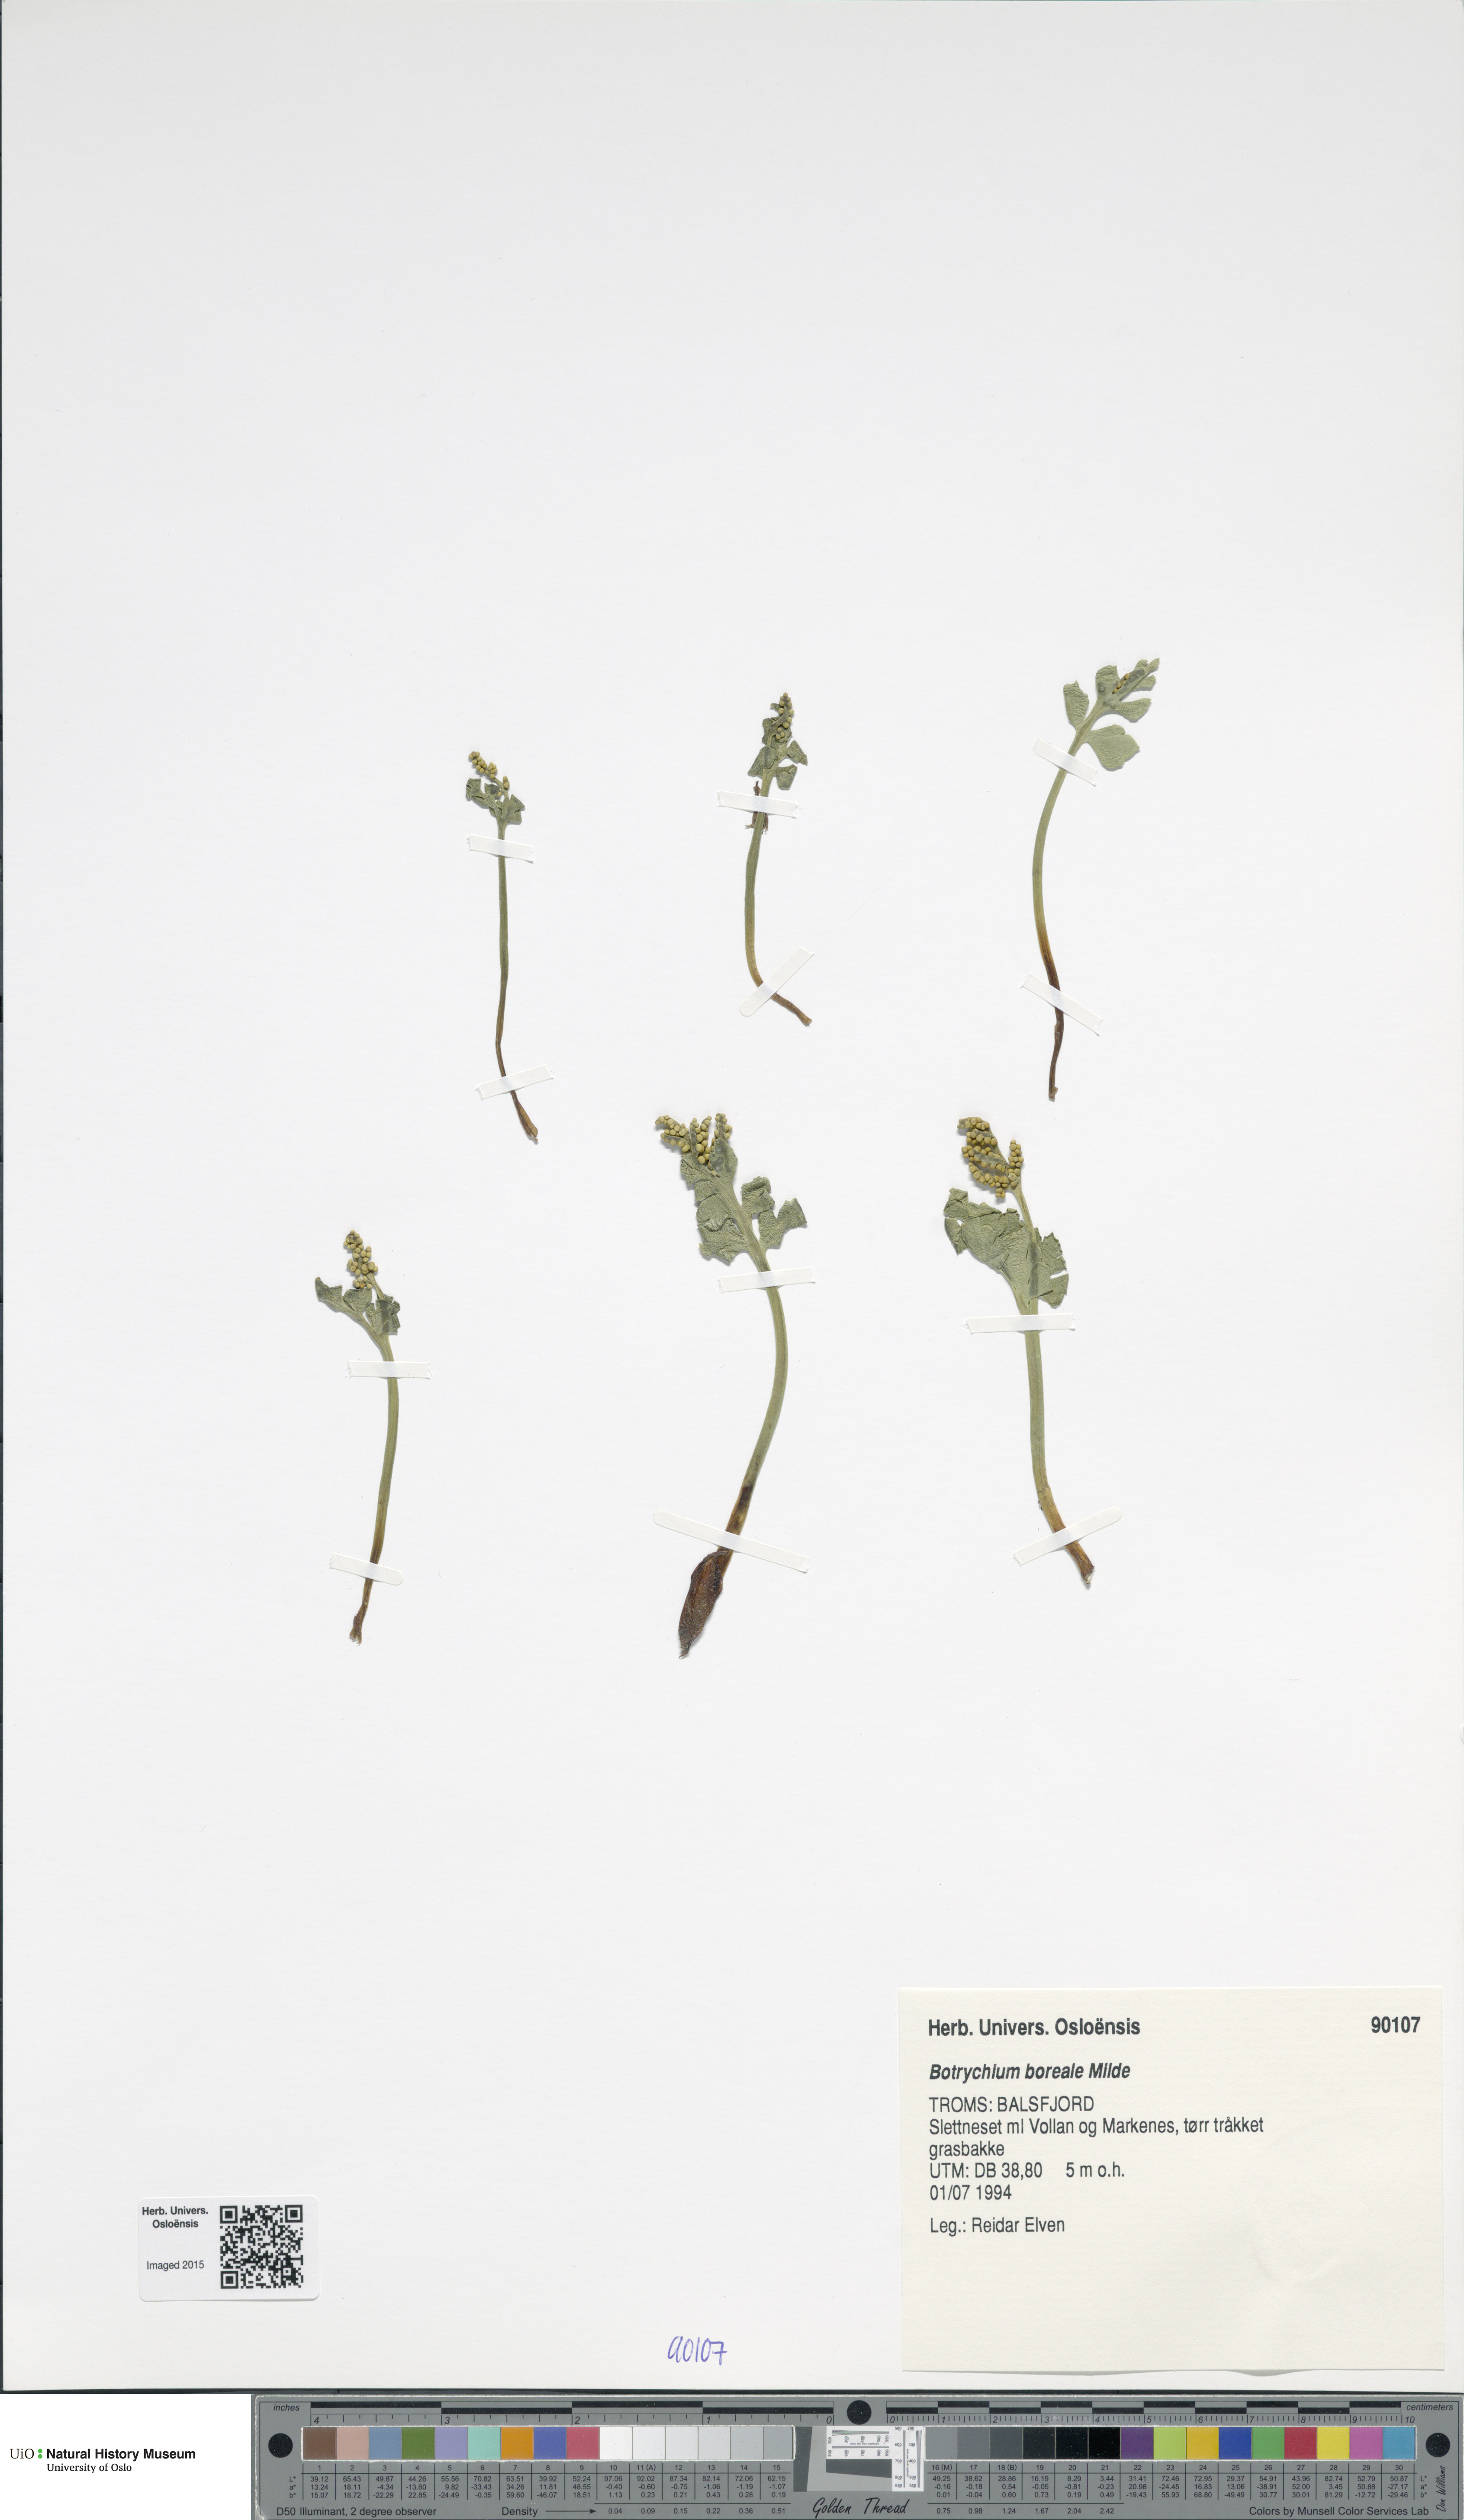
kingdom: Plantae
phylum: Tracheophyta
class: Polypodiopsida
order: Ophioglossales
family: Ophioglossaceae
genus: Botrychium
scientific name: Botrychium boreale
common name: Boreal moonwort
